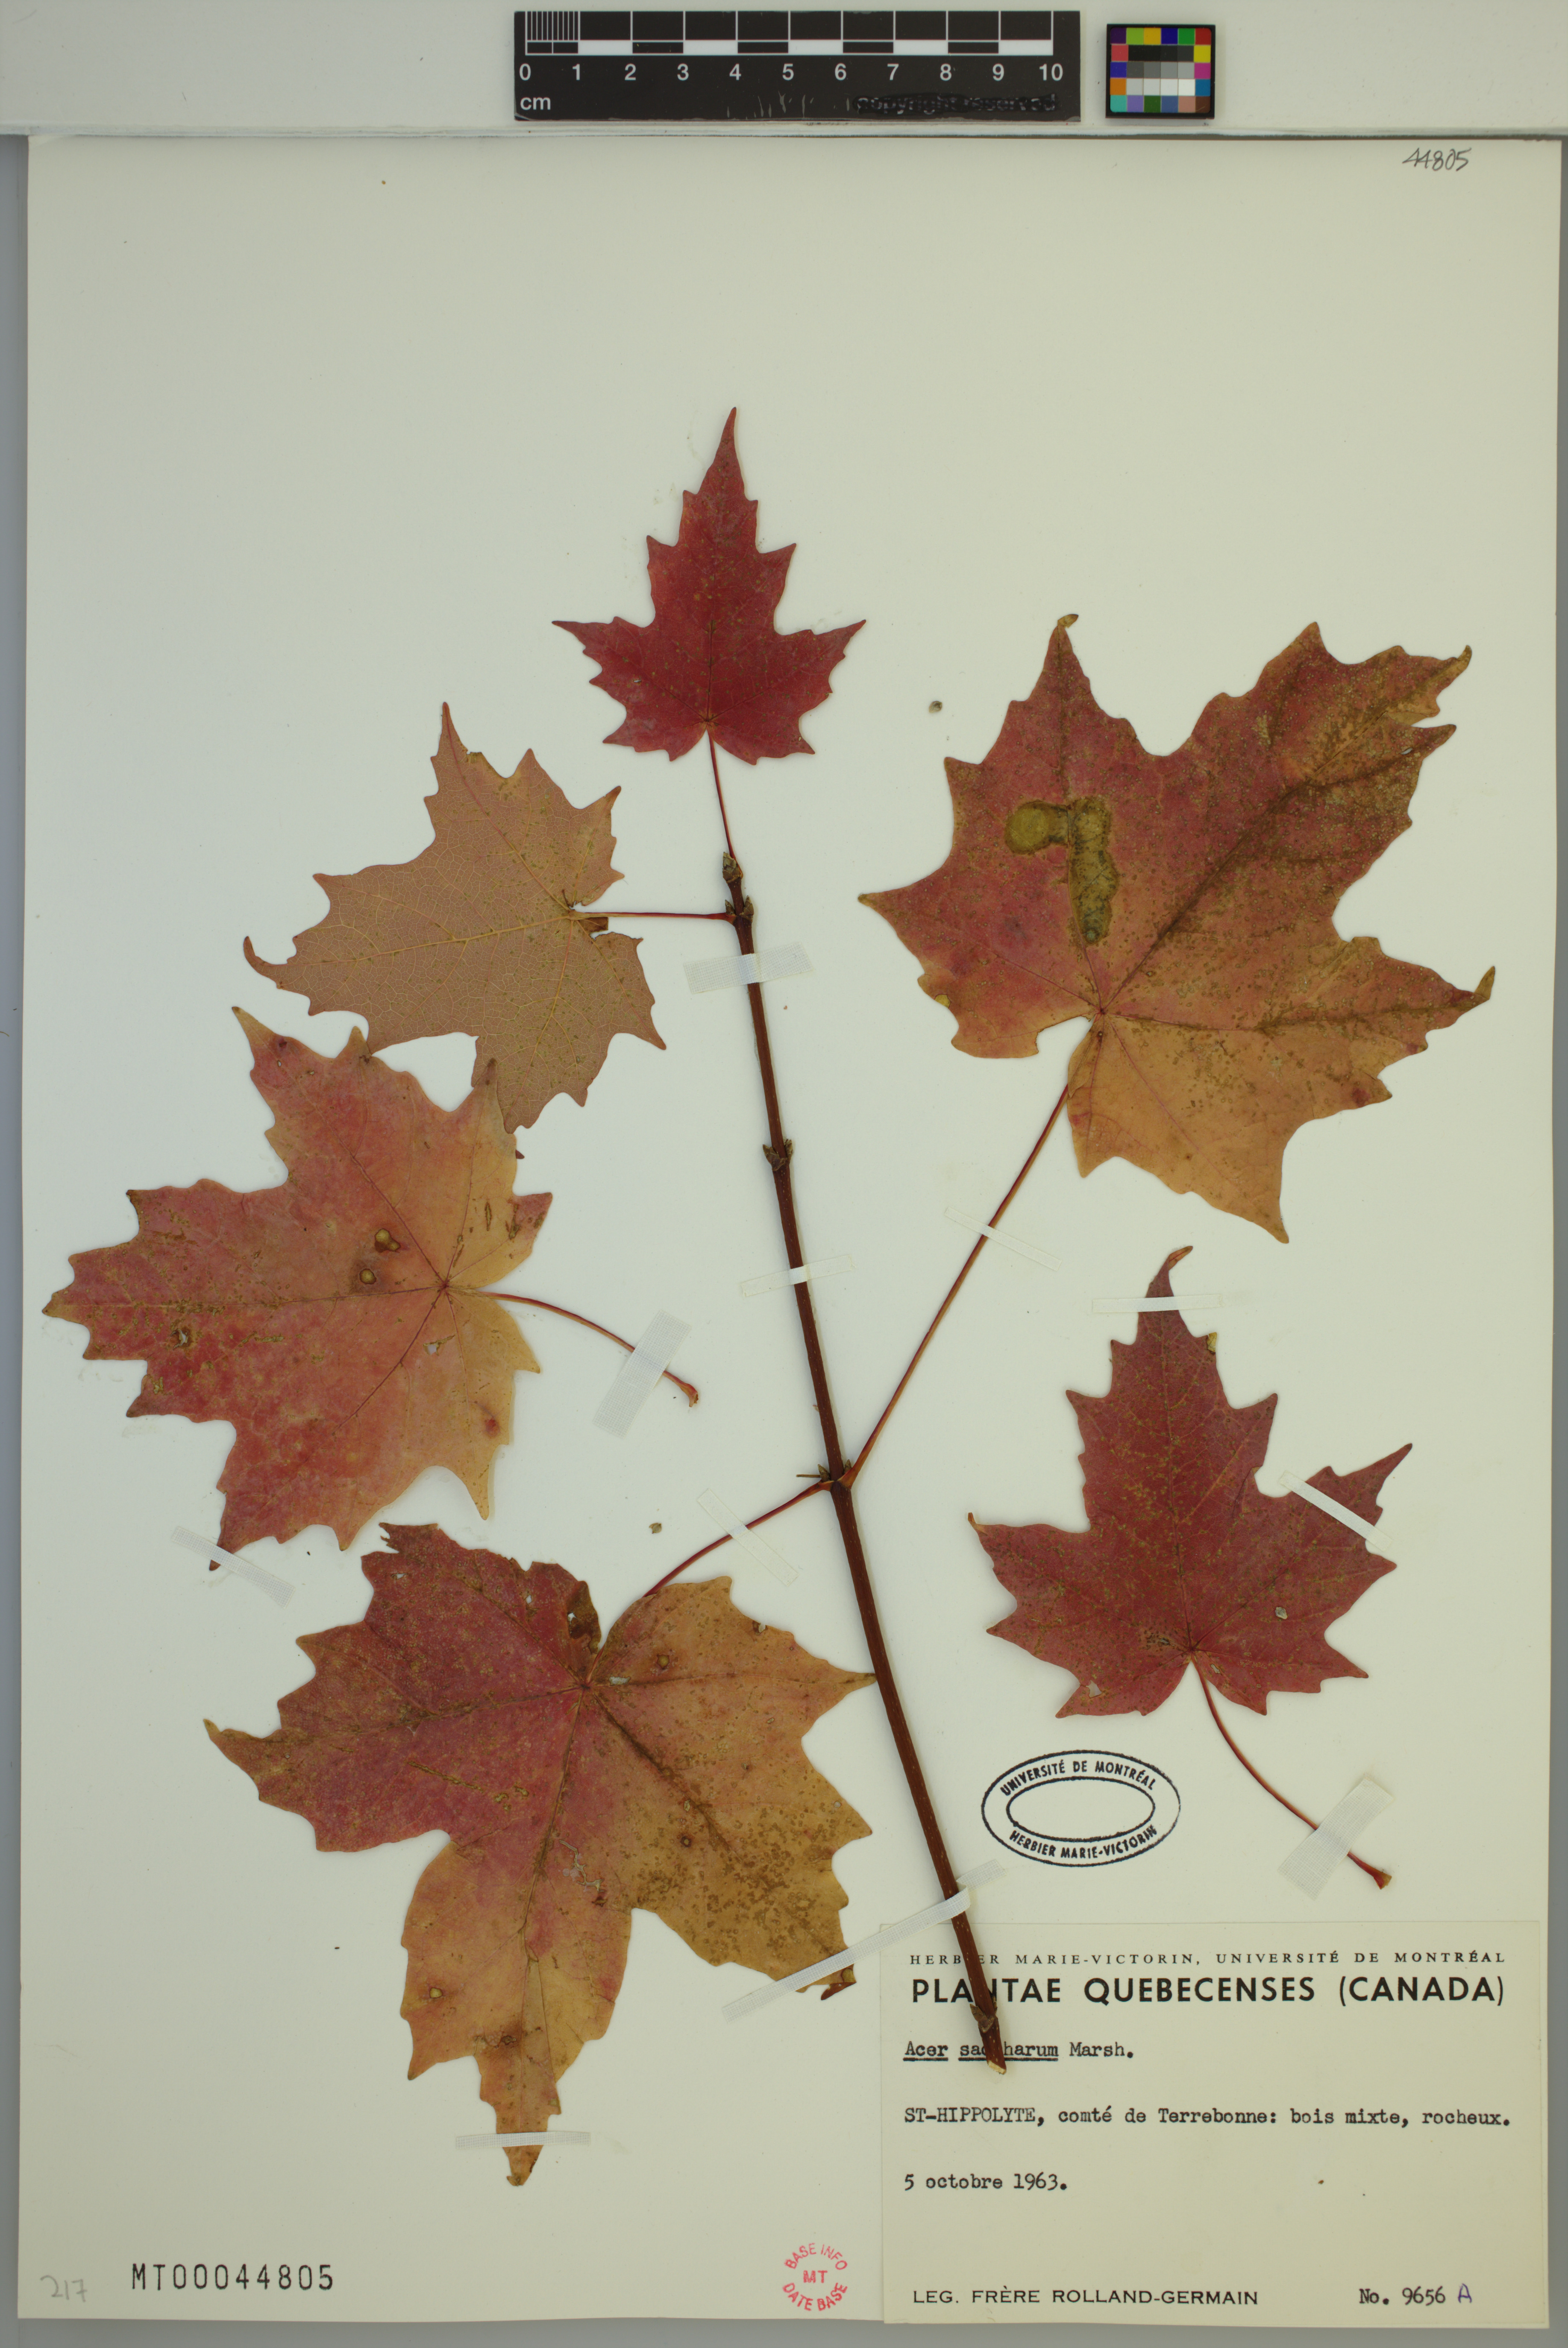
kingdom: Plantae
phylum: Tracheophyta
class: Magnoliopsida
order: Sapindales
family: Sapindaceae
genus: Acer
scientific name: Acer saccharum
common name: Sugar maple
